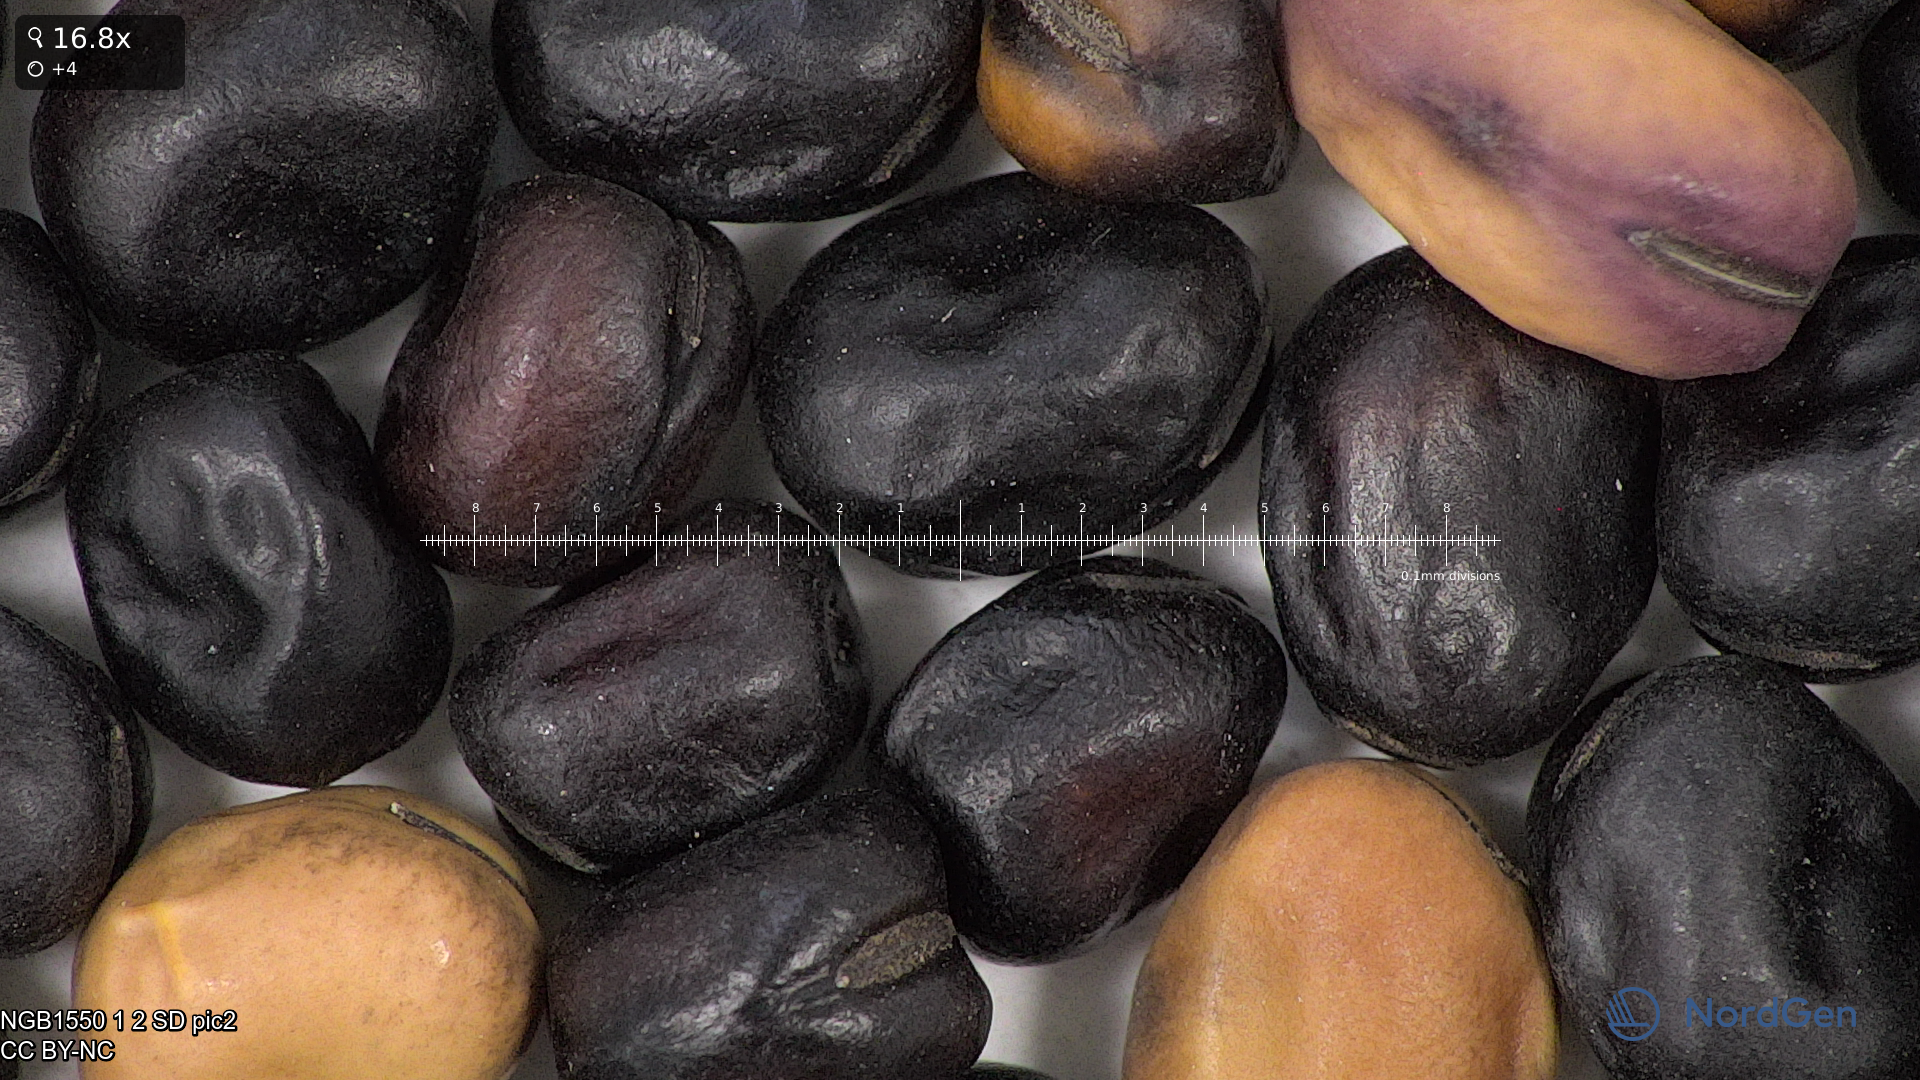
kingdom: Plantae
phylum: Tracheophyta
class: Magnoliopsida
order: Fabales
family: Fabaceae
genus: Vicia
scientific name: Vicia faba
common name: Broad bean
